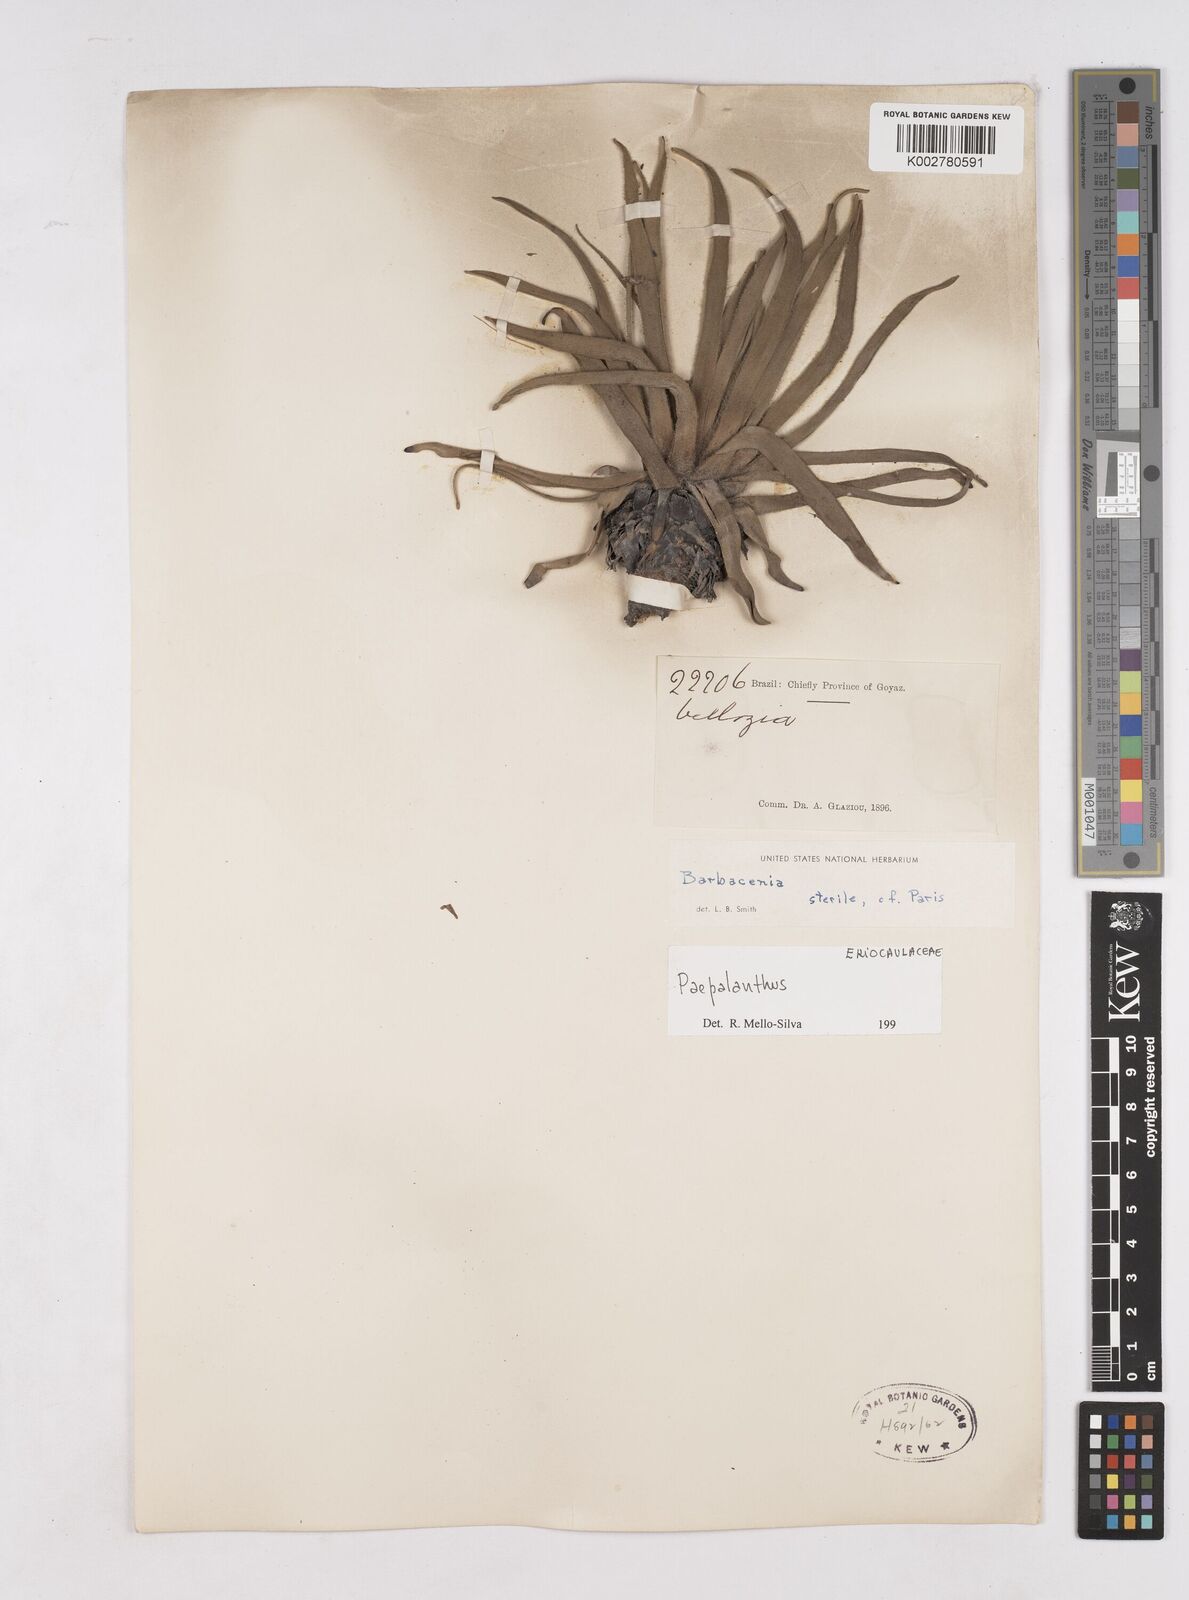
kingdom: Plantae
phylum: Tracheophyta
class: Liliopsida
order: Poales
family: Eriocaulaceae
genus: Paepalanthus
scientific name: Paepalanthus
